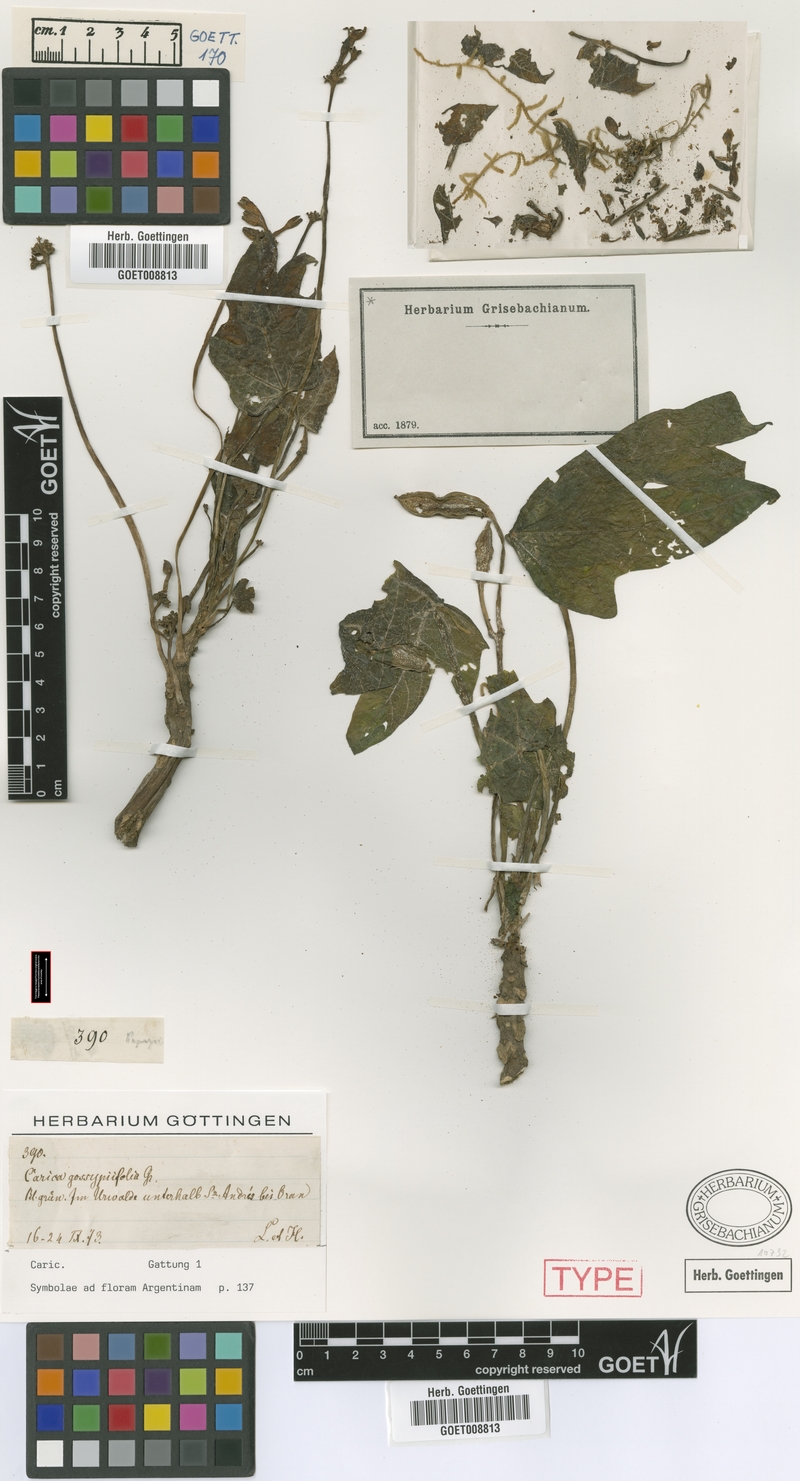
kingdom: Plantae
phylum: Tracheophyta
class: Magnoliopsida
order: Brassicales
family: Caricaceae
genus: Vasconcellea
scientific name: Vasconcellea glandulosa
